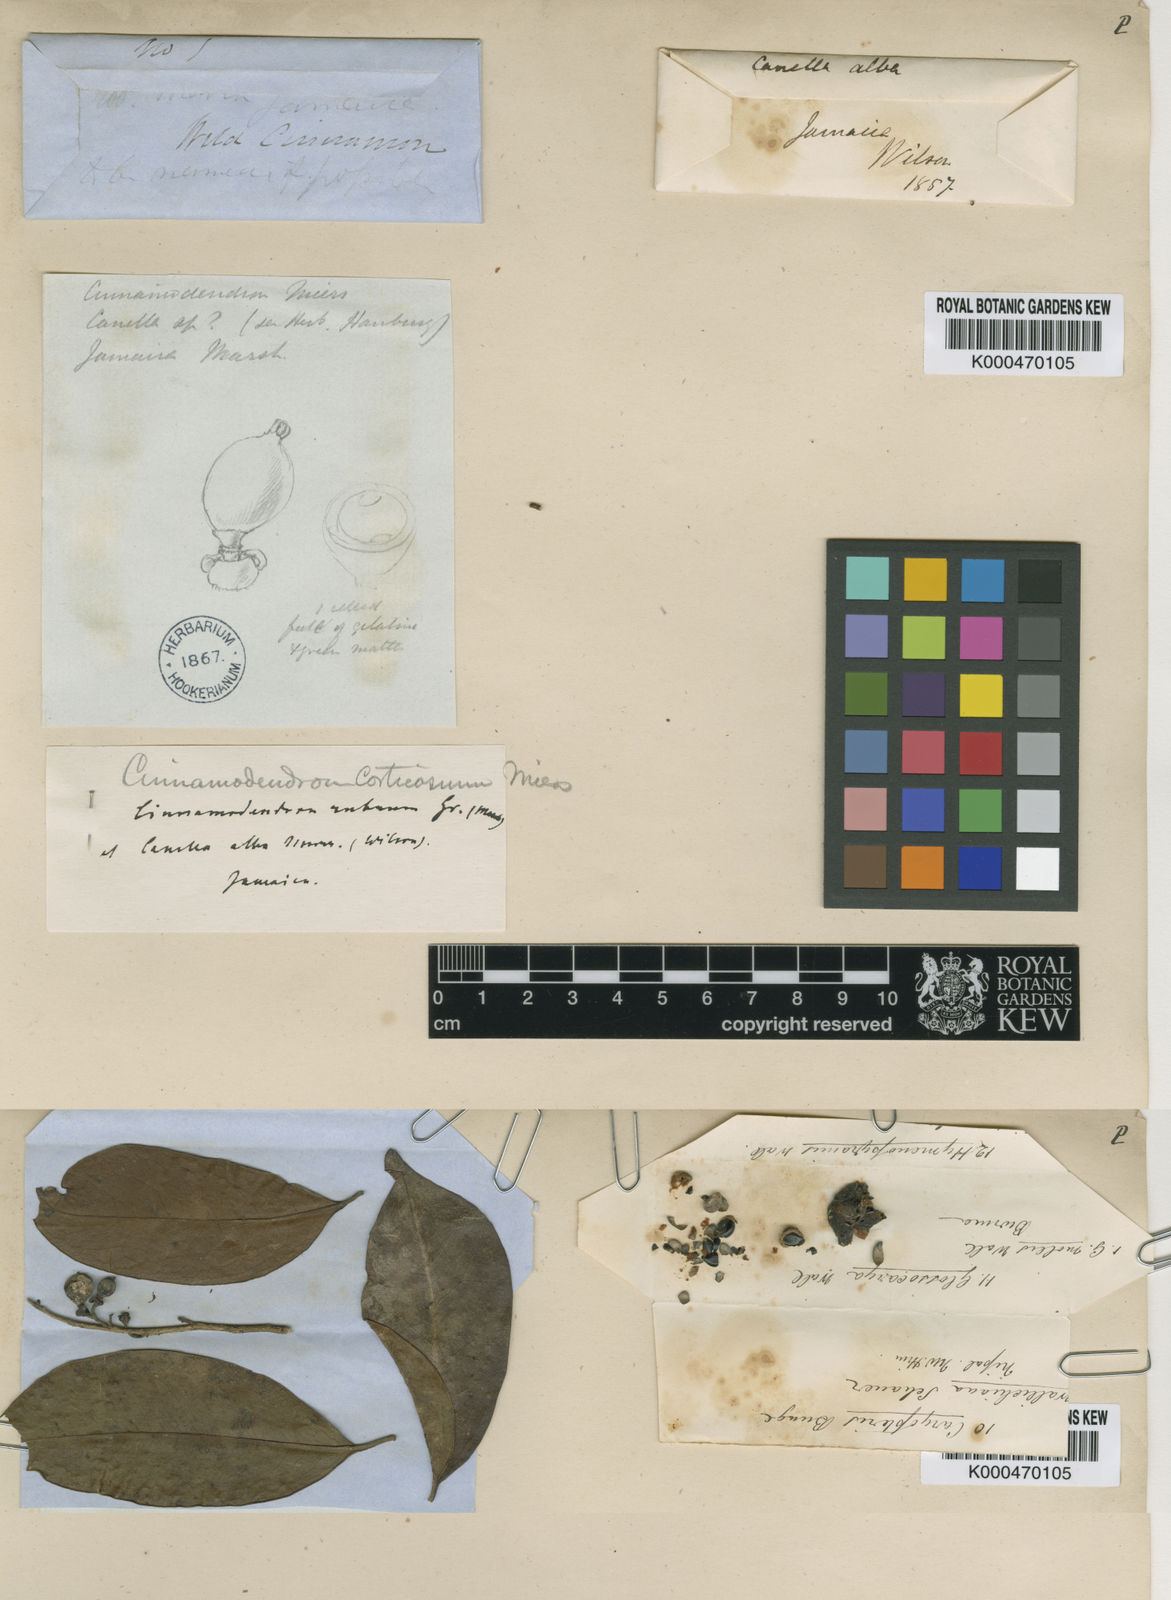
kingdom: Plantae
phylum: Tracheophyta
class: Magnoliopsida
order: Canellales
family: Canellaceae
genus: Canella
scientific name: Canella
